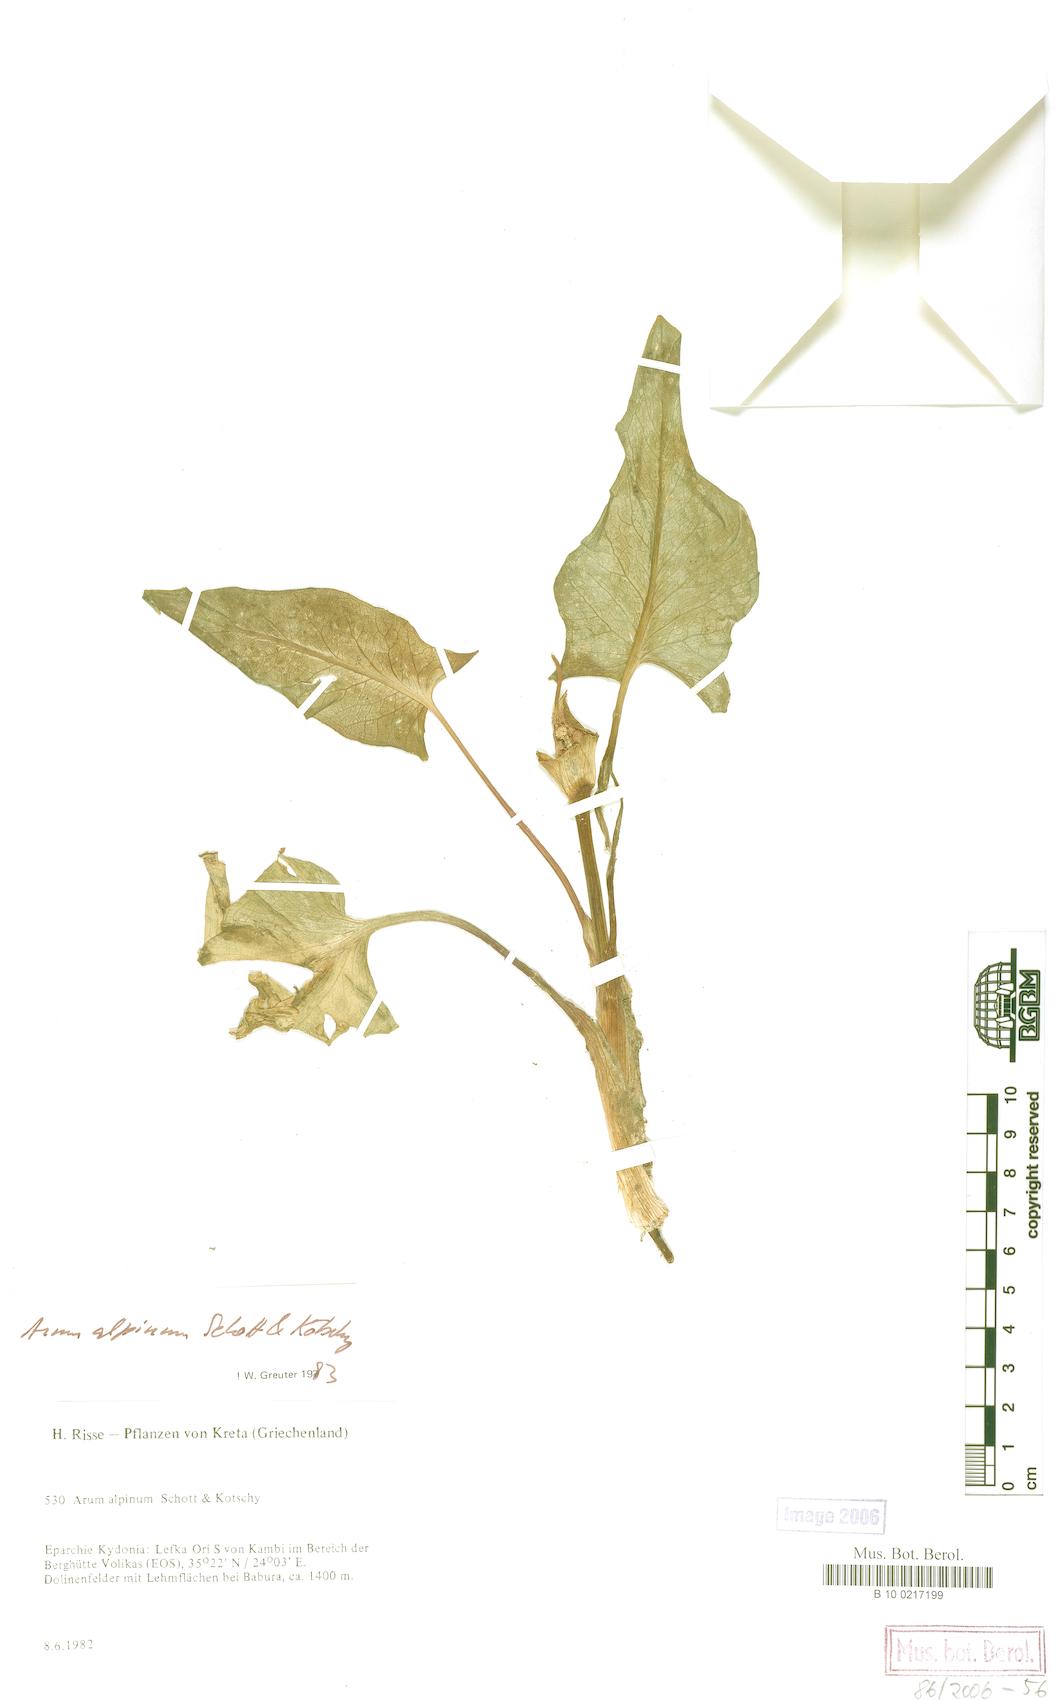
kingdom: Plantae
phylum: Tracheophyta
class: Liliopsida
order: Alismatales
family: Araceae
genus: Arum
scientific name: Arum cylindraceum
